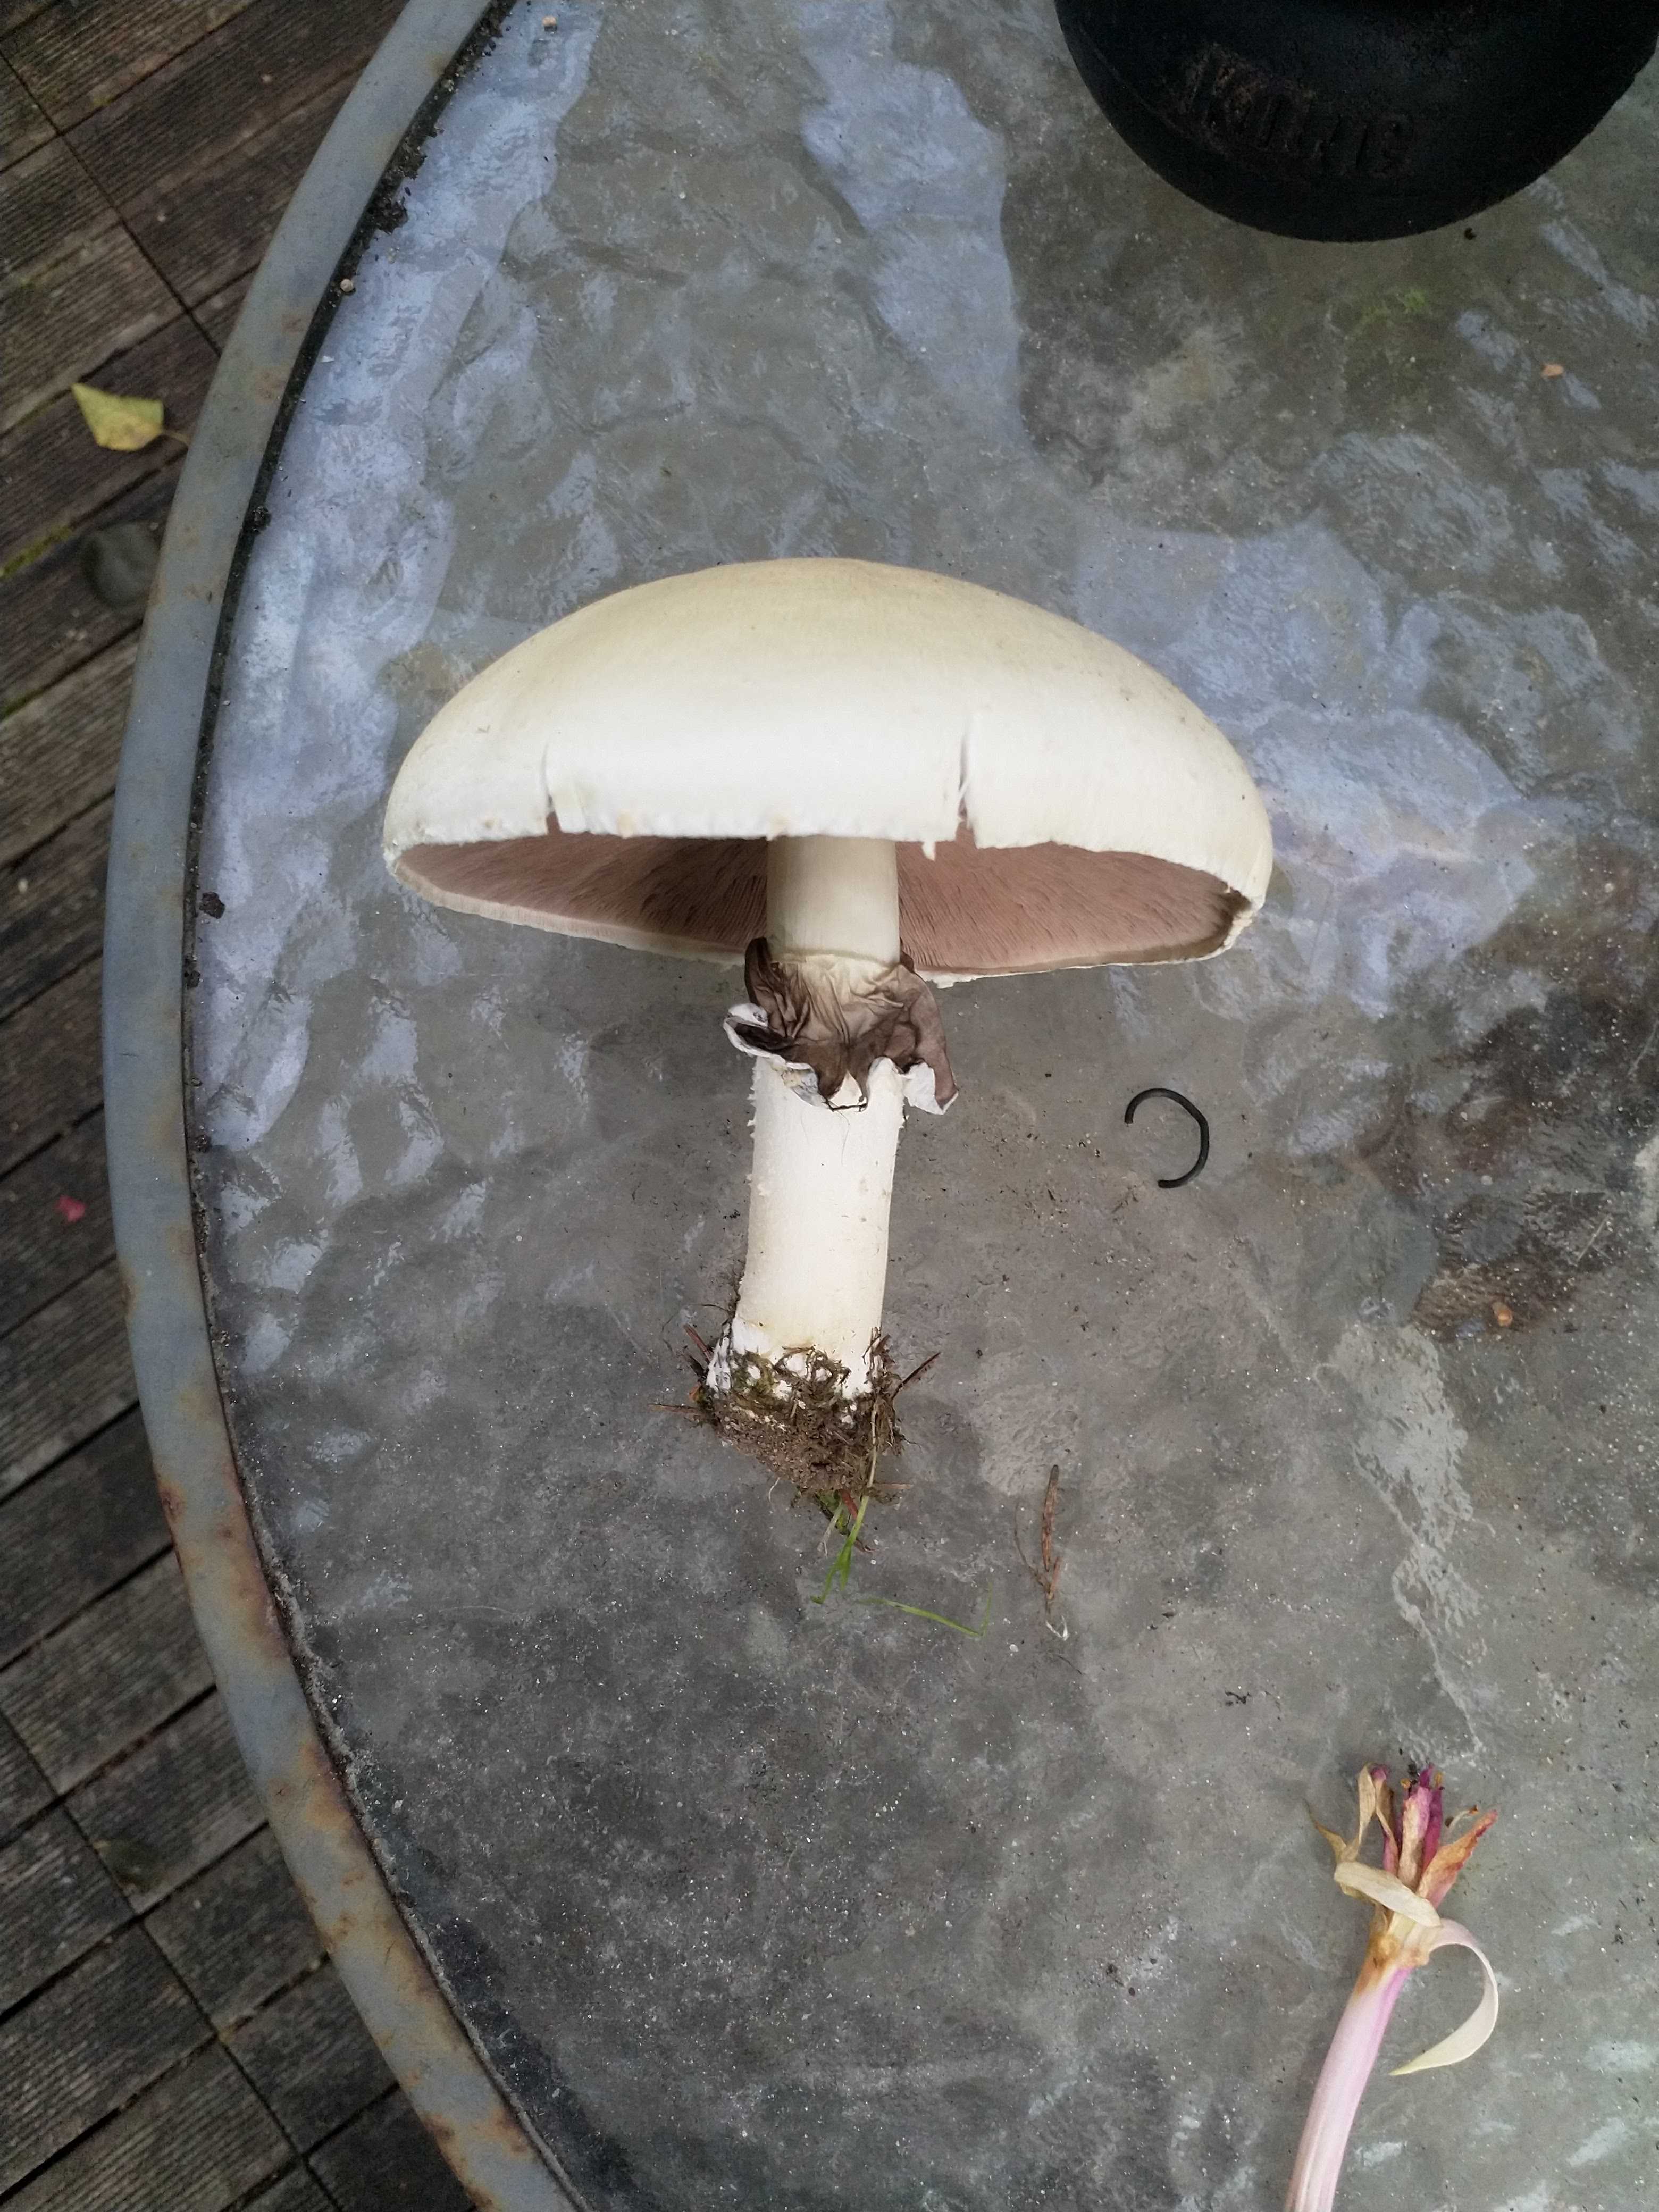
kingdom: Fungi
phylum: Basidiomycota
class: Agaricomycetes
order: Agaricales
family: Agaricaceae
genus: Agaricus
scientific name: Agaricus arvensis
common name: ager-champignon
